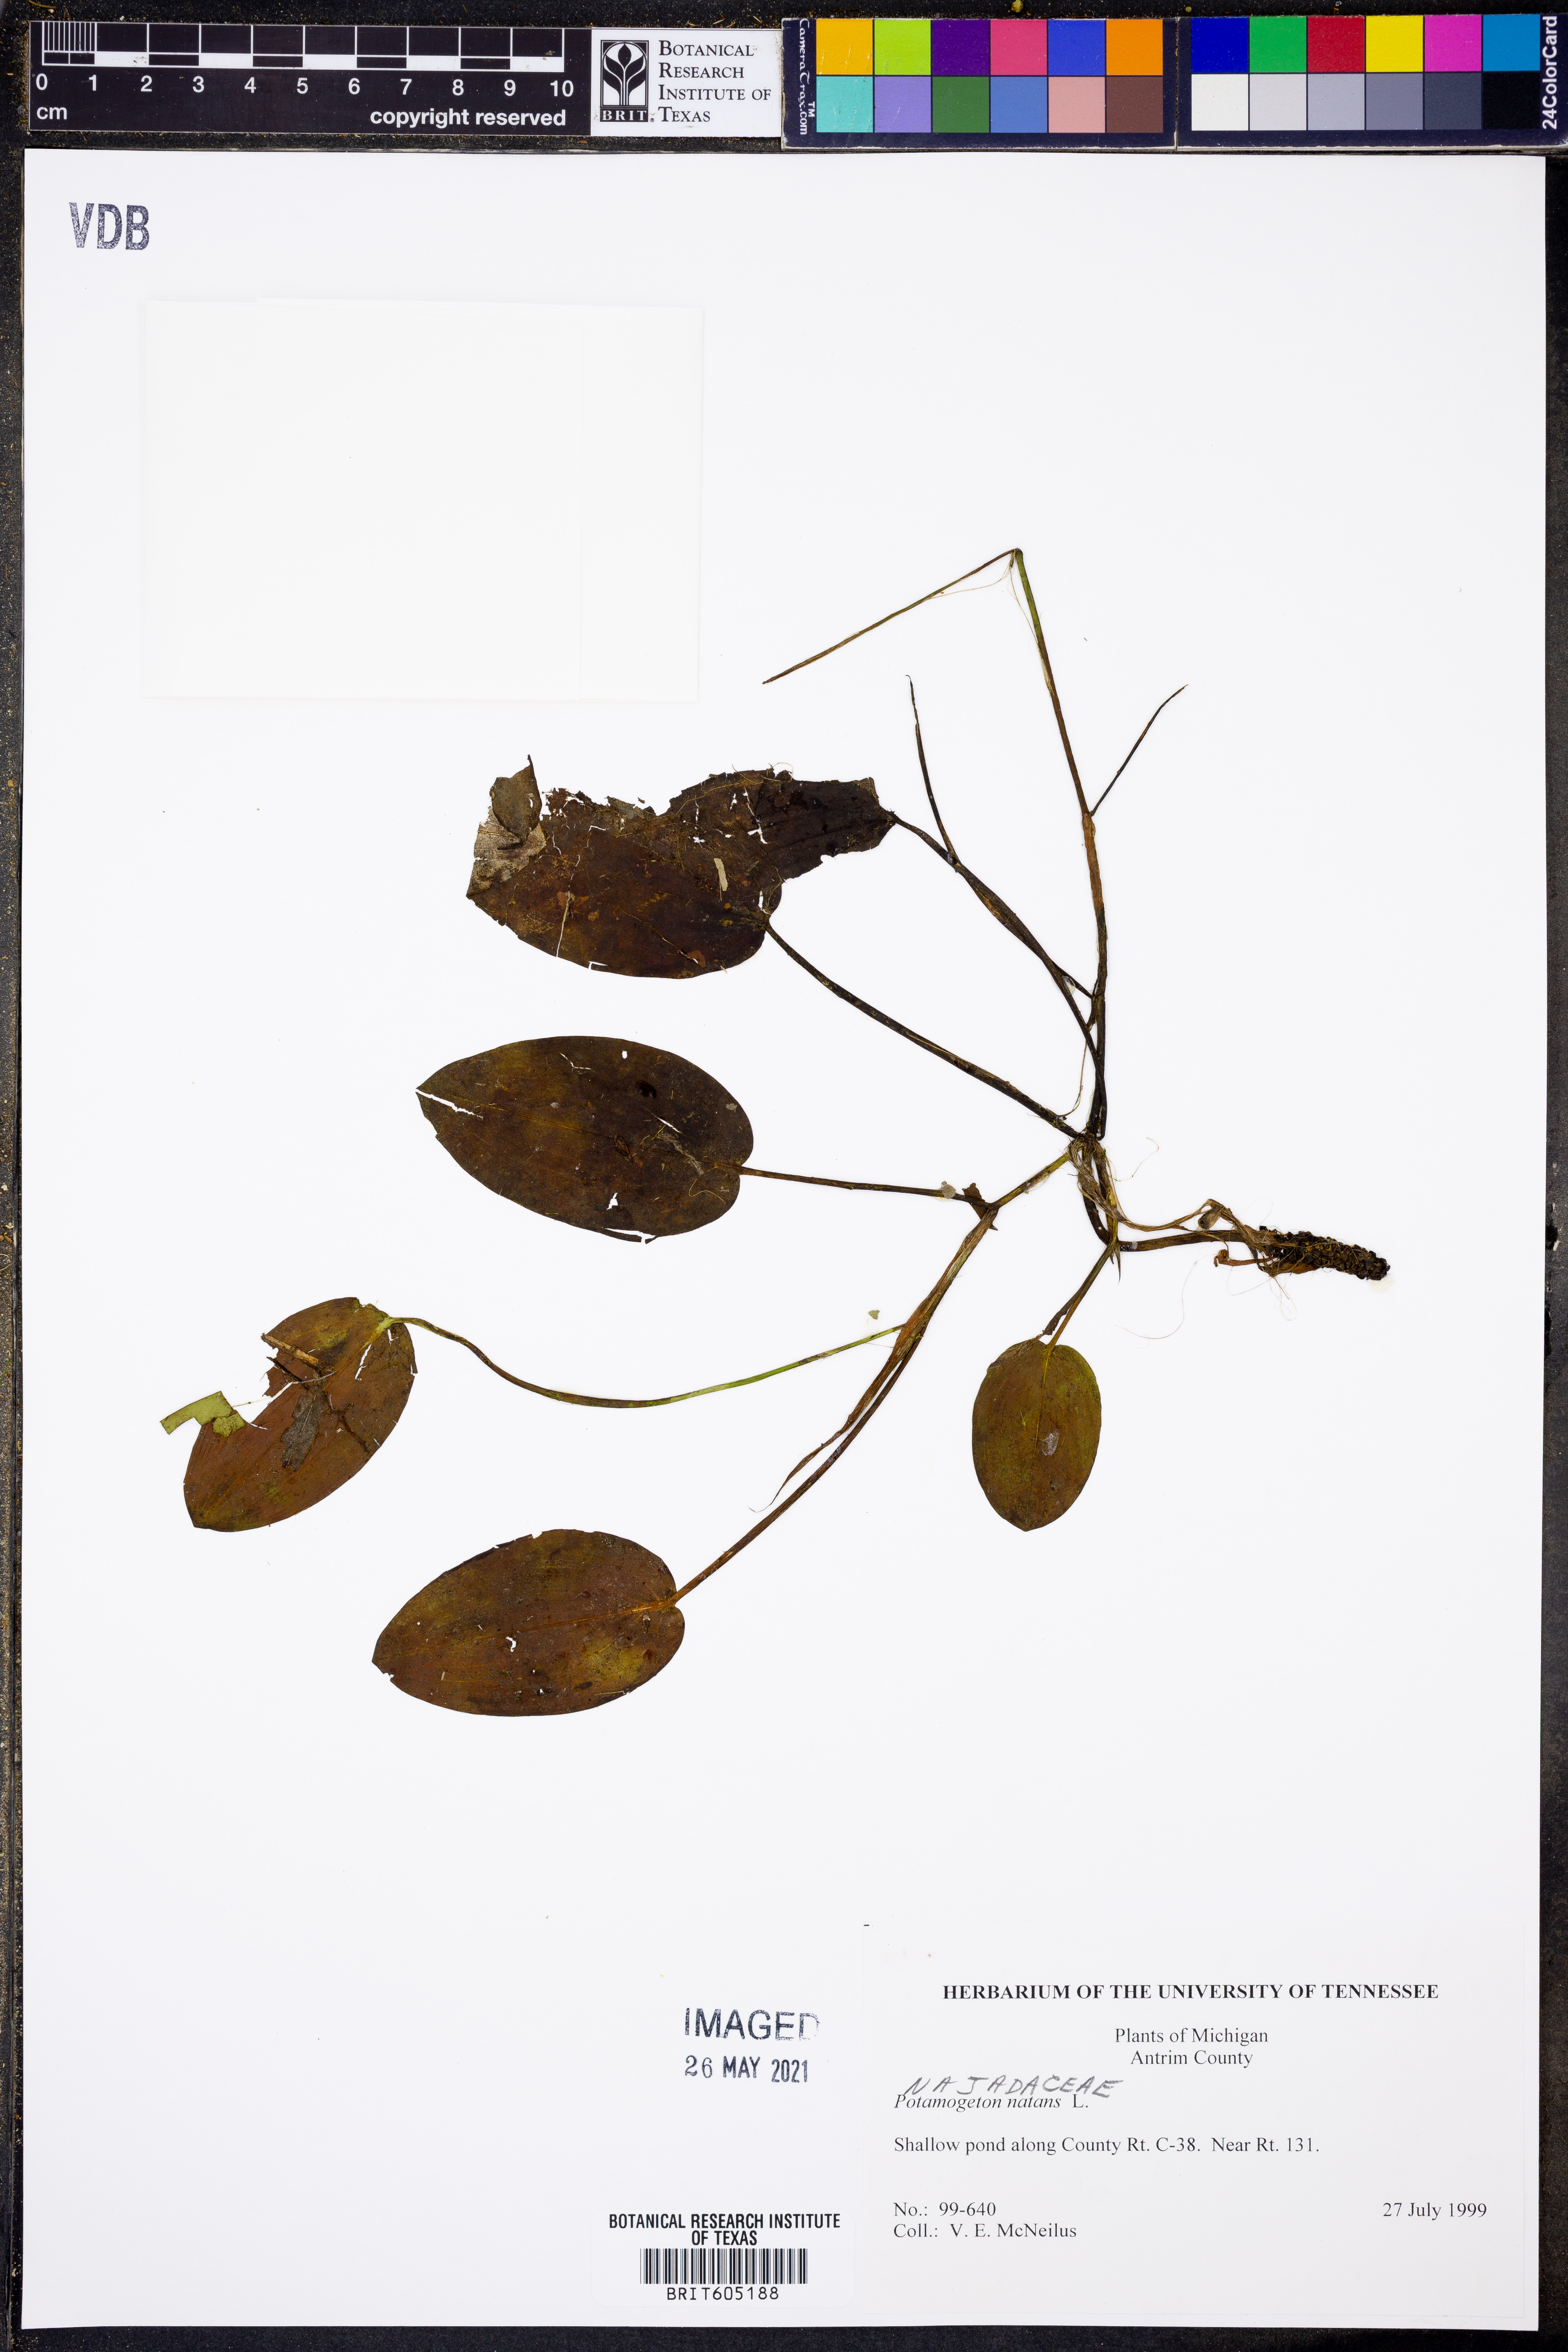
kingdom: Plantae
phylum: Tracheophyta
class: Liliopsida
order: Alismatales
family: Potamogetonaceae
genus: Potamogeton
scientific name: Potamogeton natans
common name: Broad-leaved pondweed
